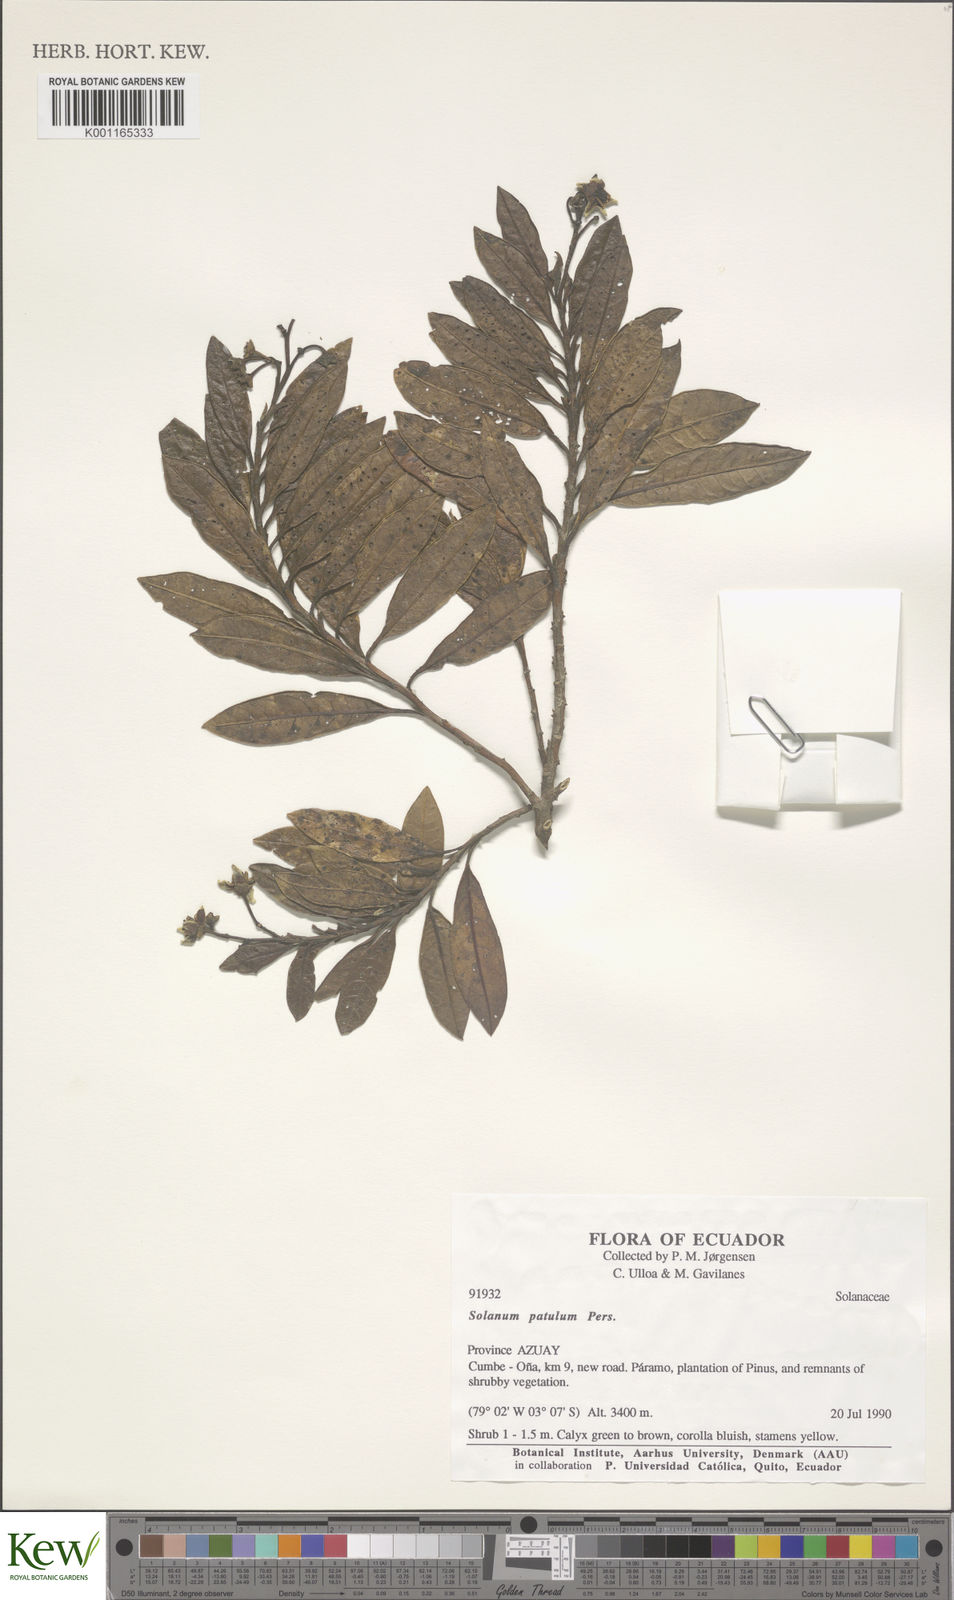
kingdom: Plantae
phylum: Tracheophyta
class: Magnoliopsida
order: Solanales
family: Solanaceae
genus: Solanum
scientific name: Solanum ruizii
